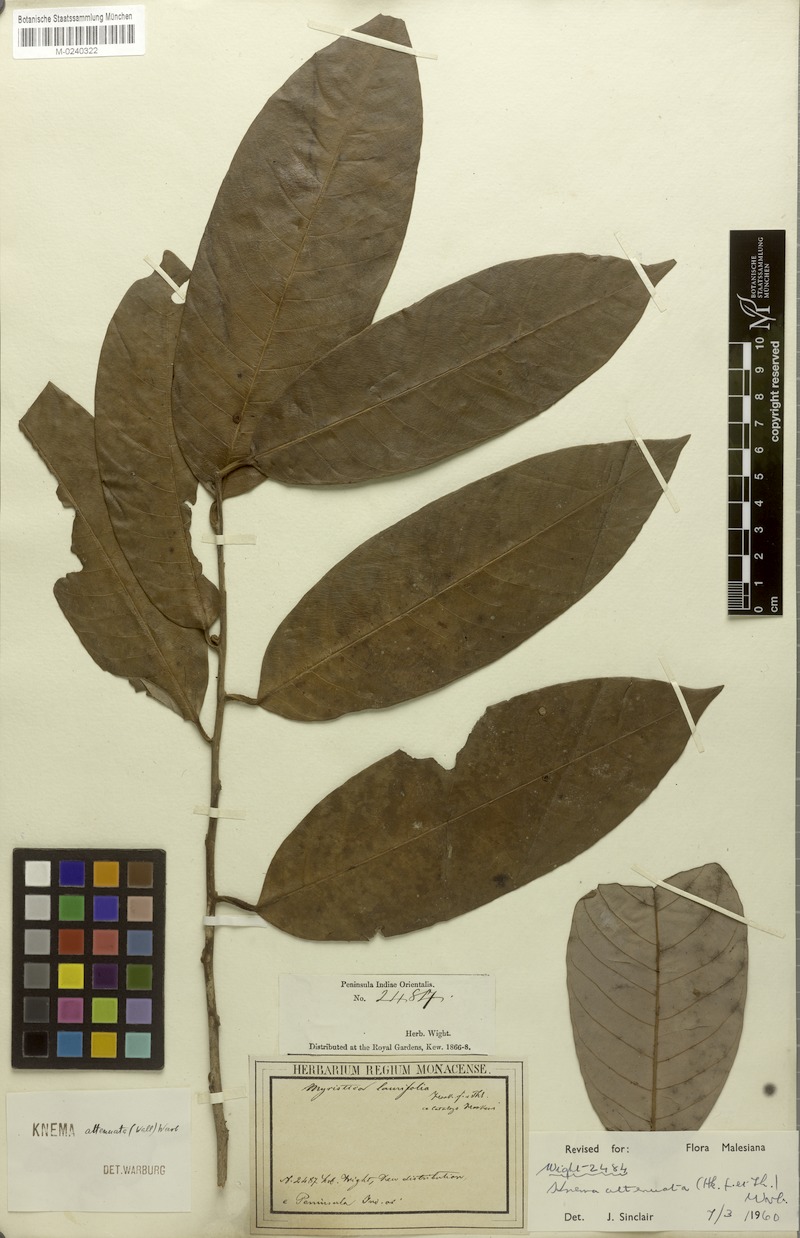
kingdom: Plantae
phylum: Tracheophyta
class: Magnoliopsida
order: Magnoliales
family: Myristicaceae
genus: Knema
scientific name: Knema attenuata
